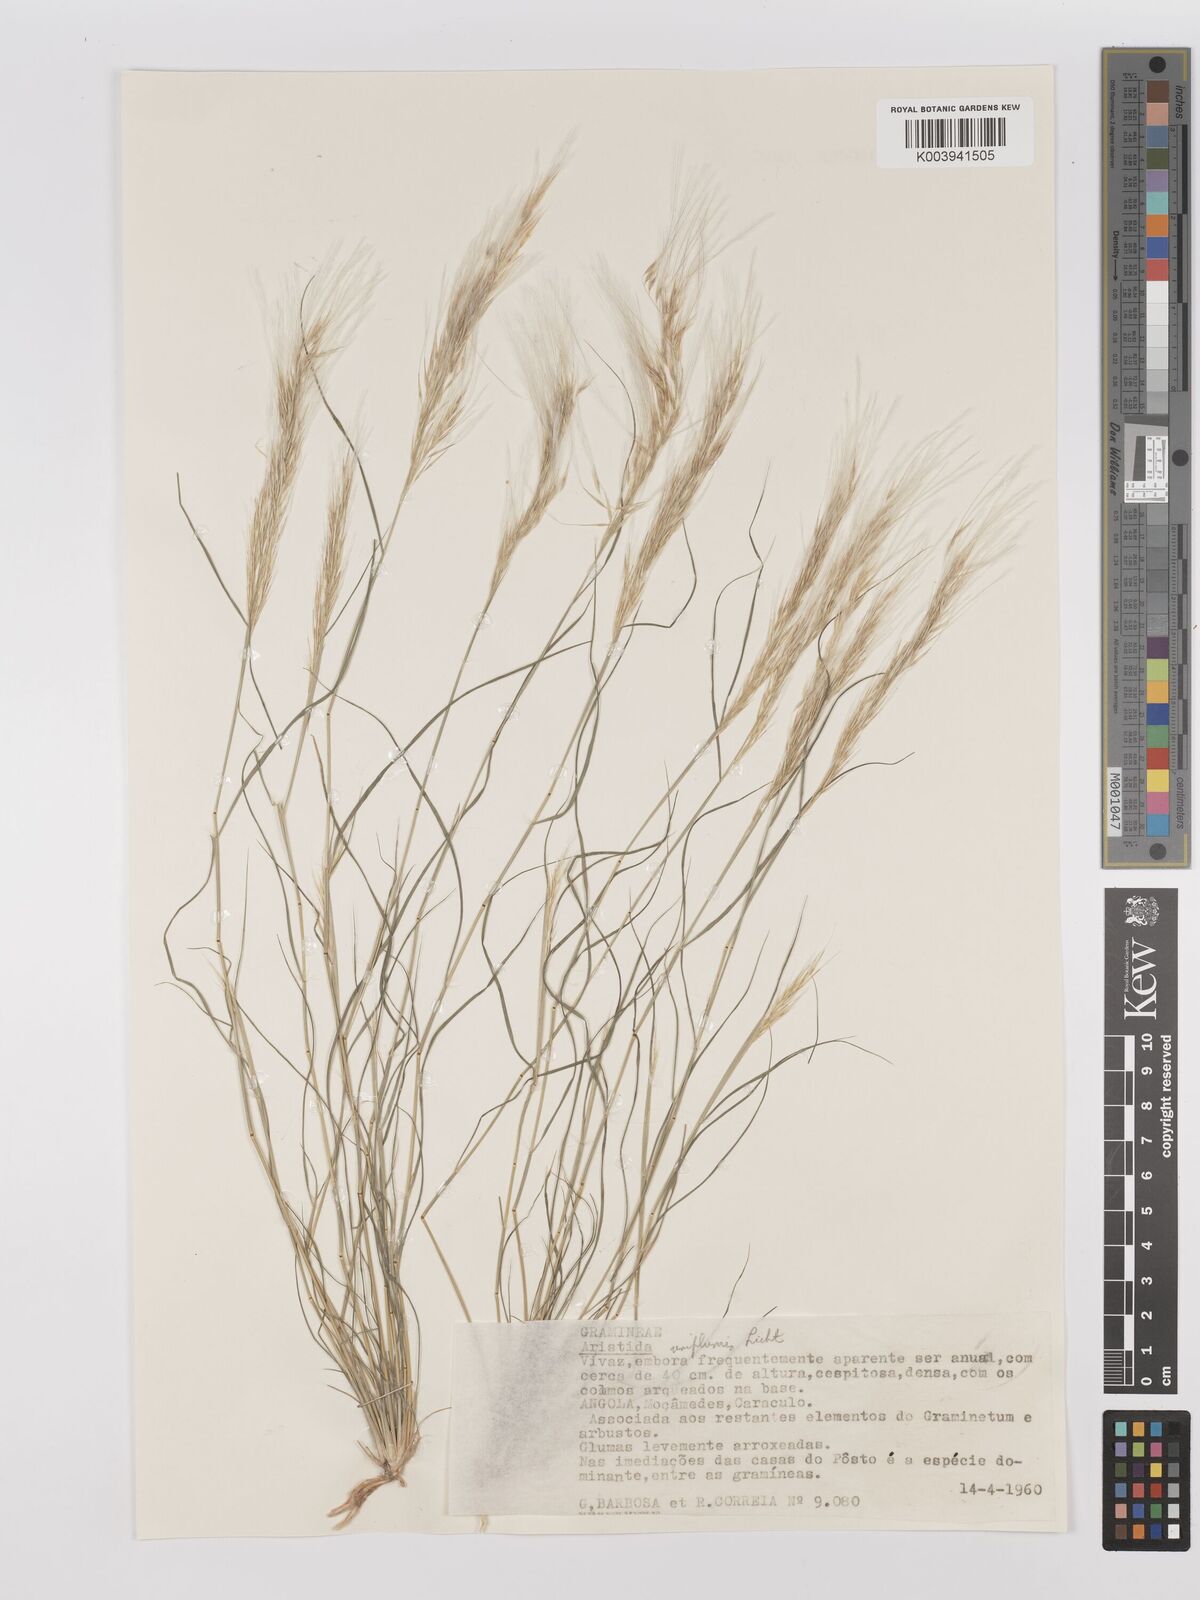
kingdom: Plantae
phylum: Tracheophyta
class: Liliopsida
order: Poales
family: Poaceae
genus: Stipagrostis
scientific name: Stipagrostis uniplumis
